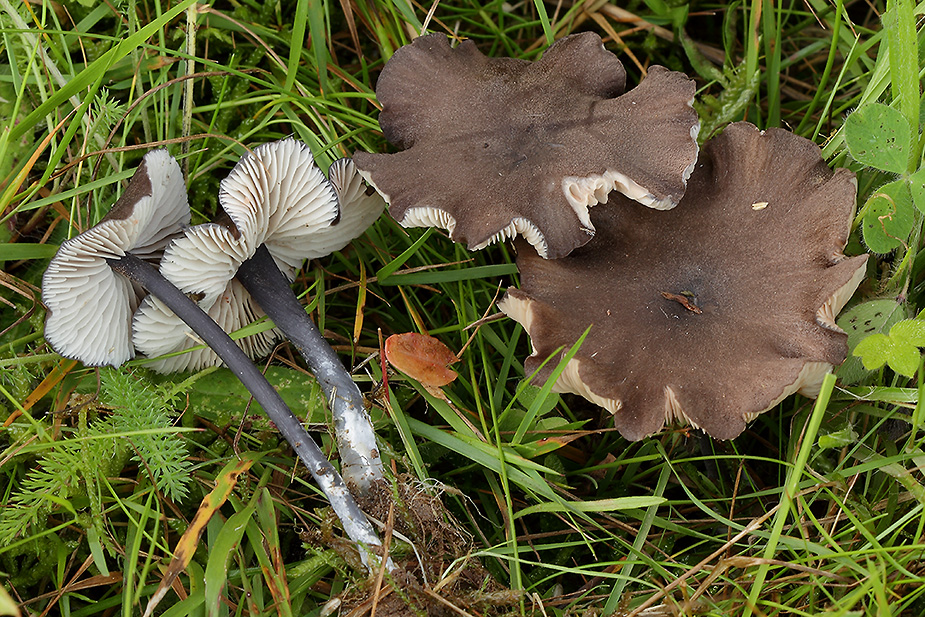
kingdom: Fungi
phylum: Basidiomycota
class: Agaricomycetes
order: Agaricales
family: Entolomataceae
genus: Entoloma
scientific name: Entoloma
